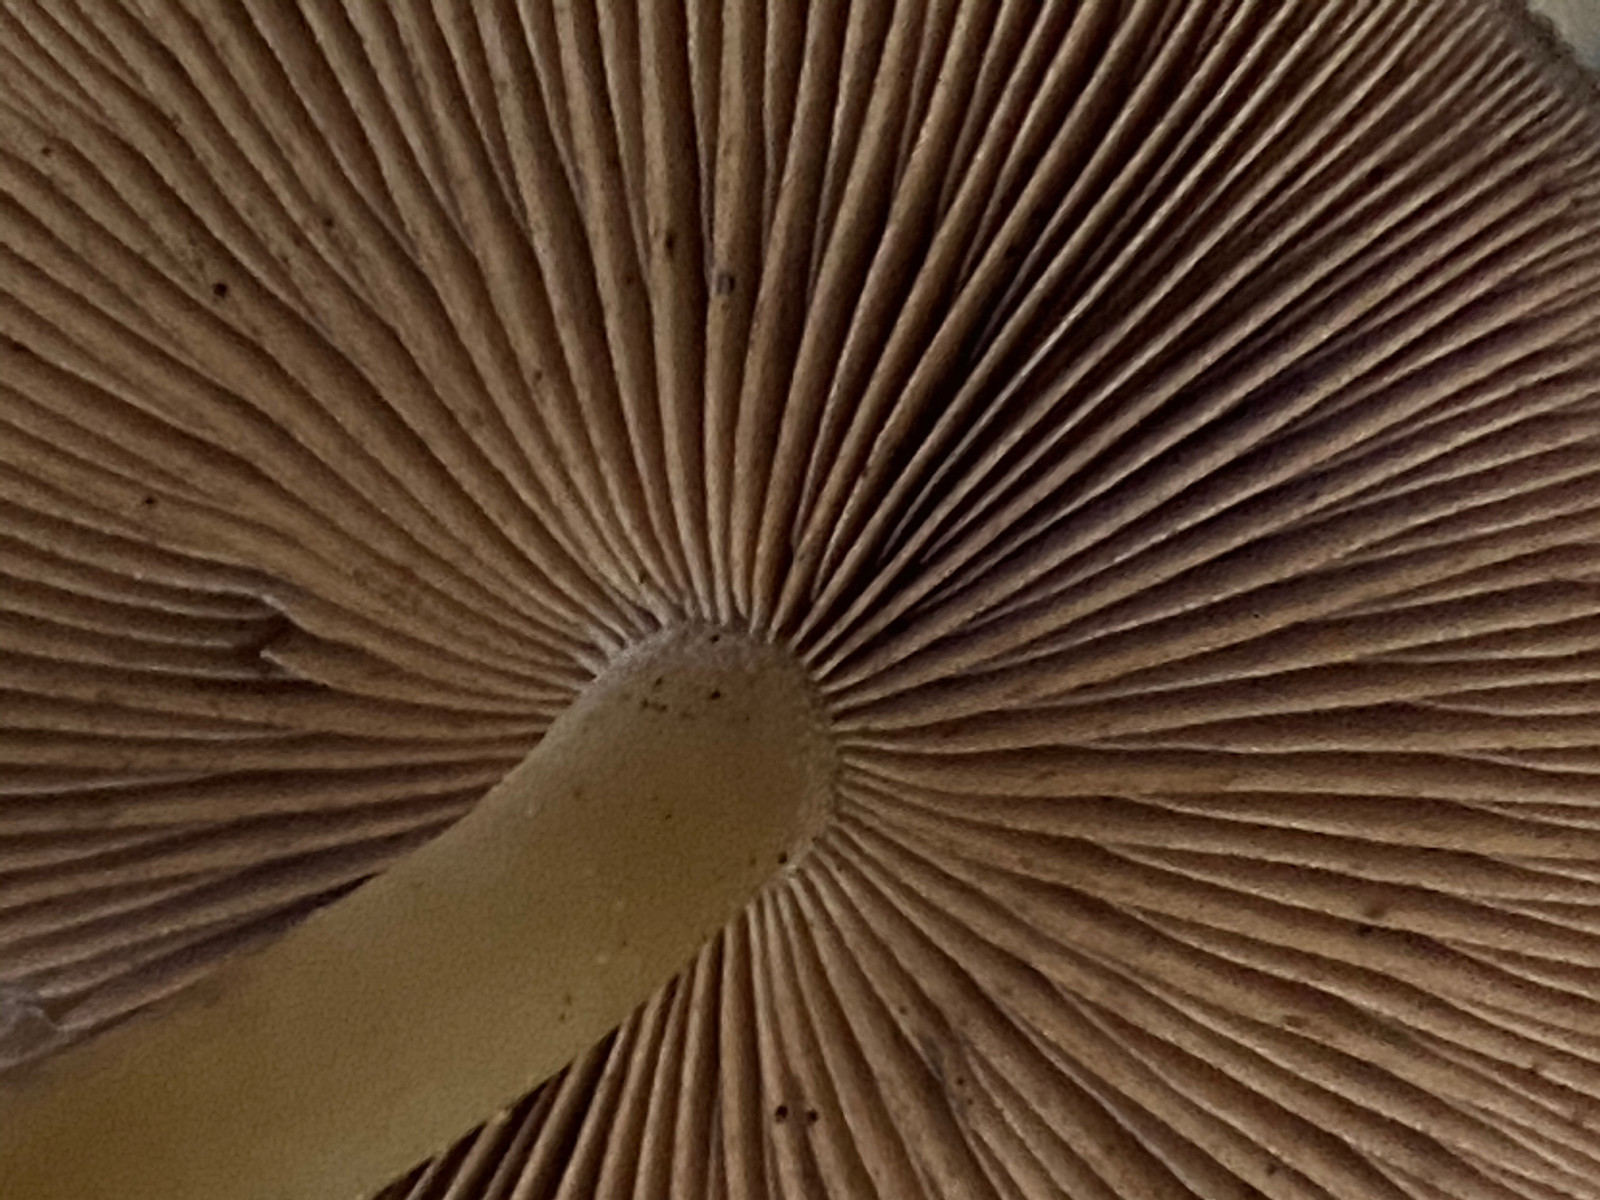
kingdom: Fungi
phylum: Basidiomycota
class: Agaricomycetes
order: Agaricales
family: Psathyrellaceae
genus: Psathyrella
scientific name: Psathyrella piluliformis
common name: lysstokket mørkhat
